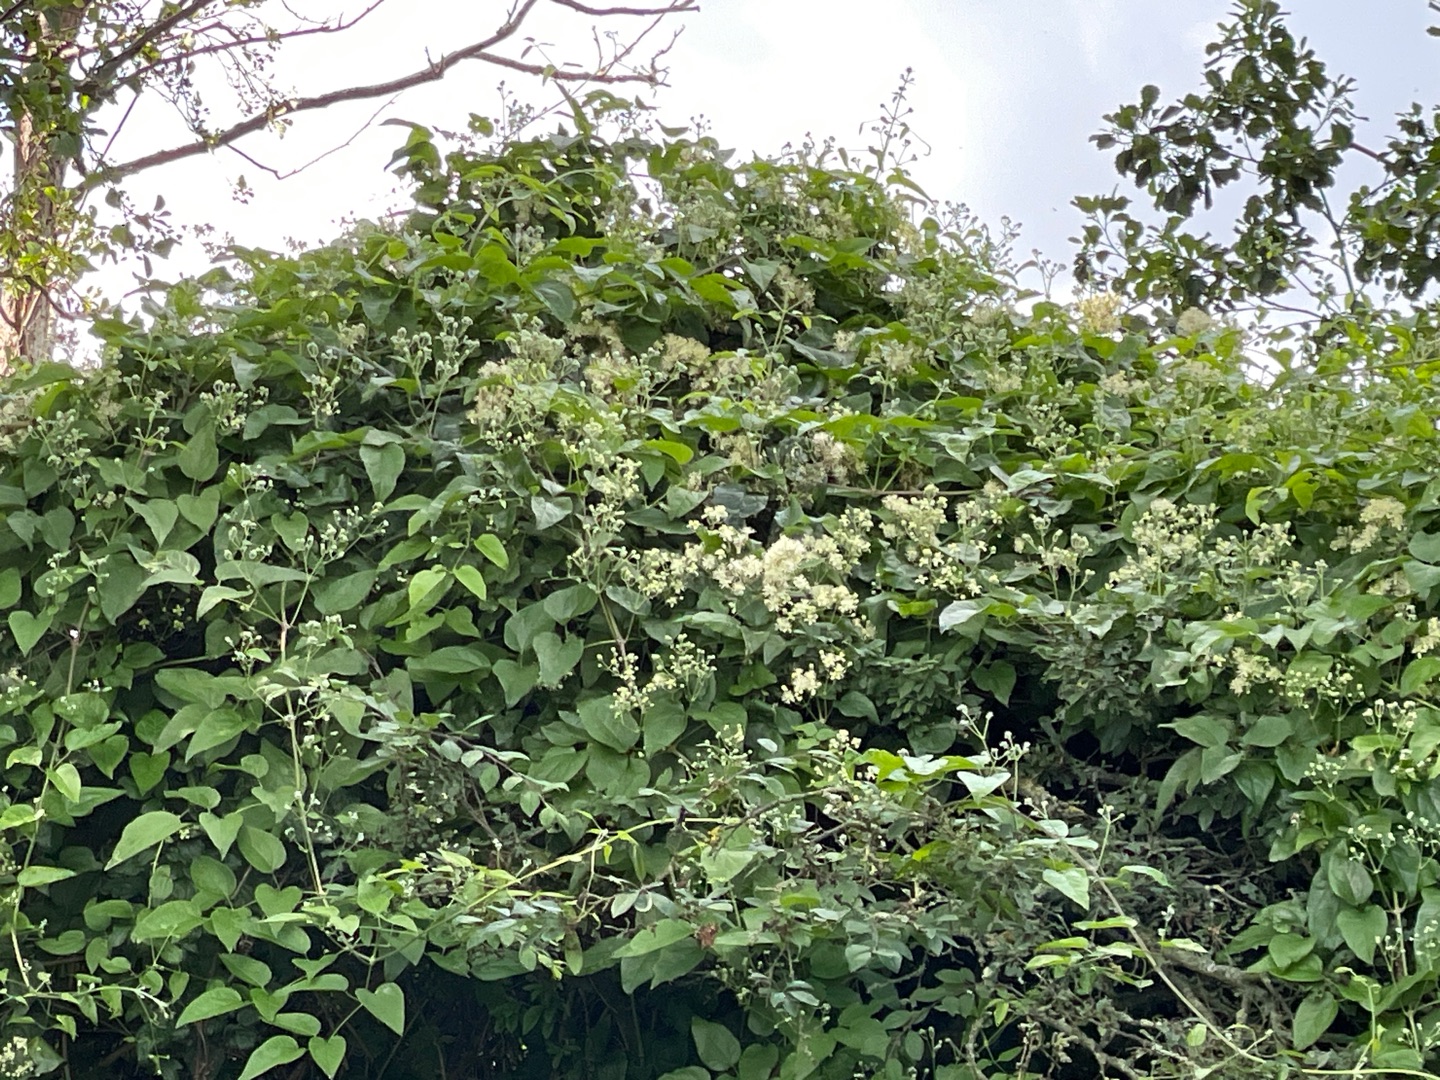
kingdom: Plantae
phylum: Tracheophyta
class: Magnoliopsida
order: Ranunculales
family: Ranunculaceae
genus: Clematis
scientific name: Clematis vitalba
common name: Skovranke
